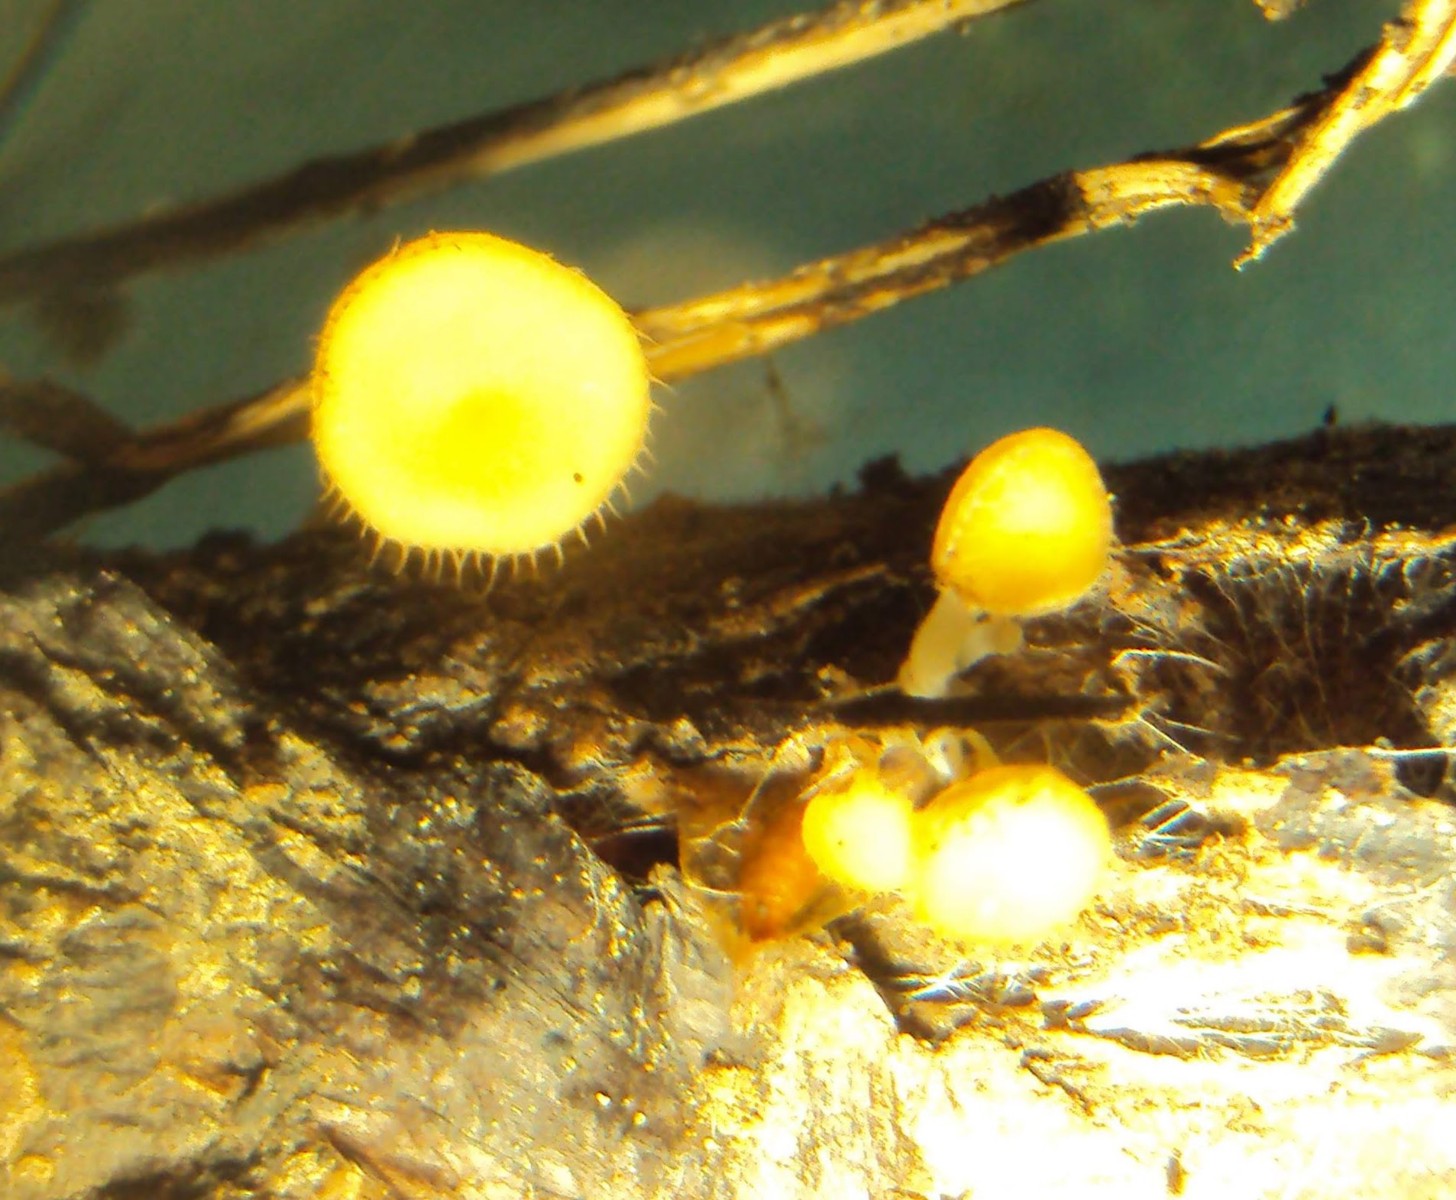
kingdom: Fungi
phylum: Ascomycota
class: Leotiomycetes
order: Helotiales
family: Helotiaceae
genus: Cyathicula
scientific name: Cyathicula coronata
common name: krone-stilkskive
